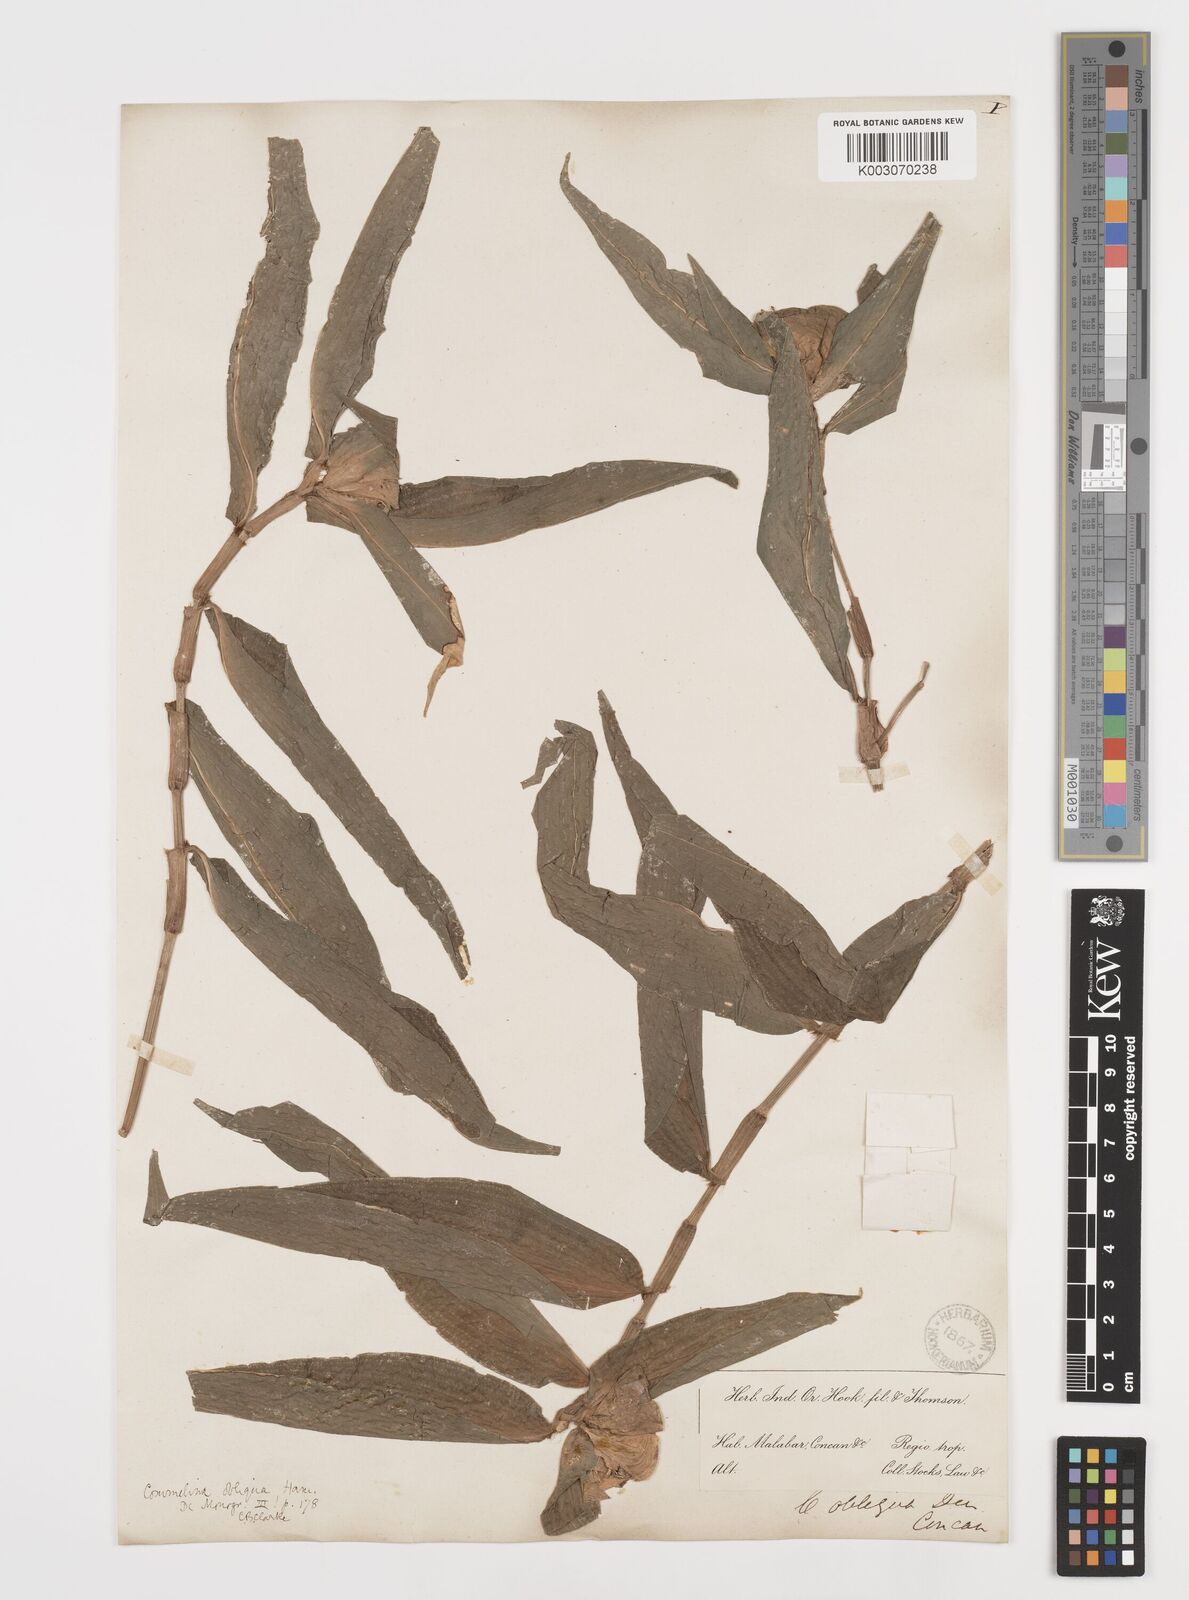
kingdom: Plantae
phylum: Tracheophyta
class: Liliopsida
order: Commelinales
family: Commelinaceae
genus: Commelina
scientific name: Commelina paludosa
